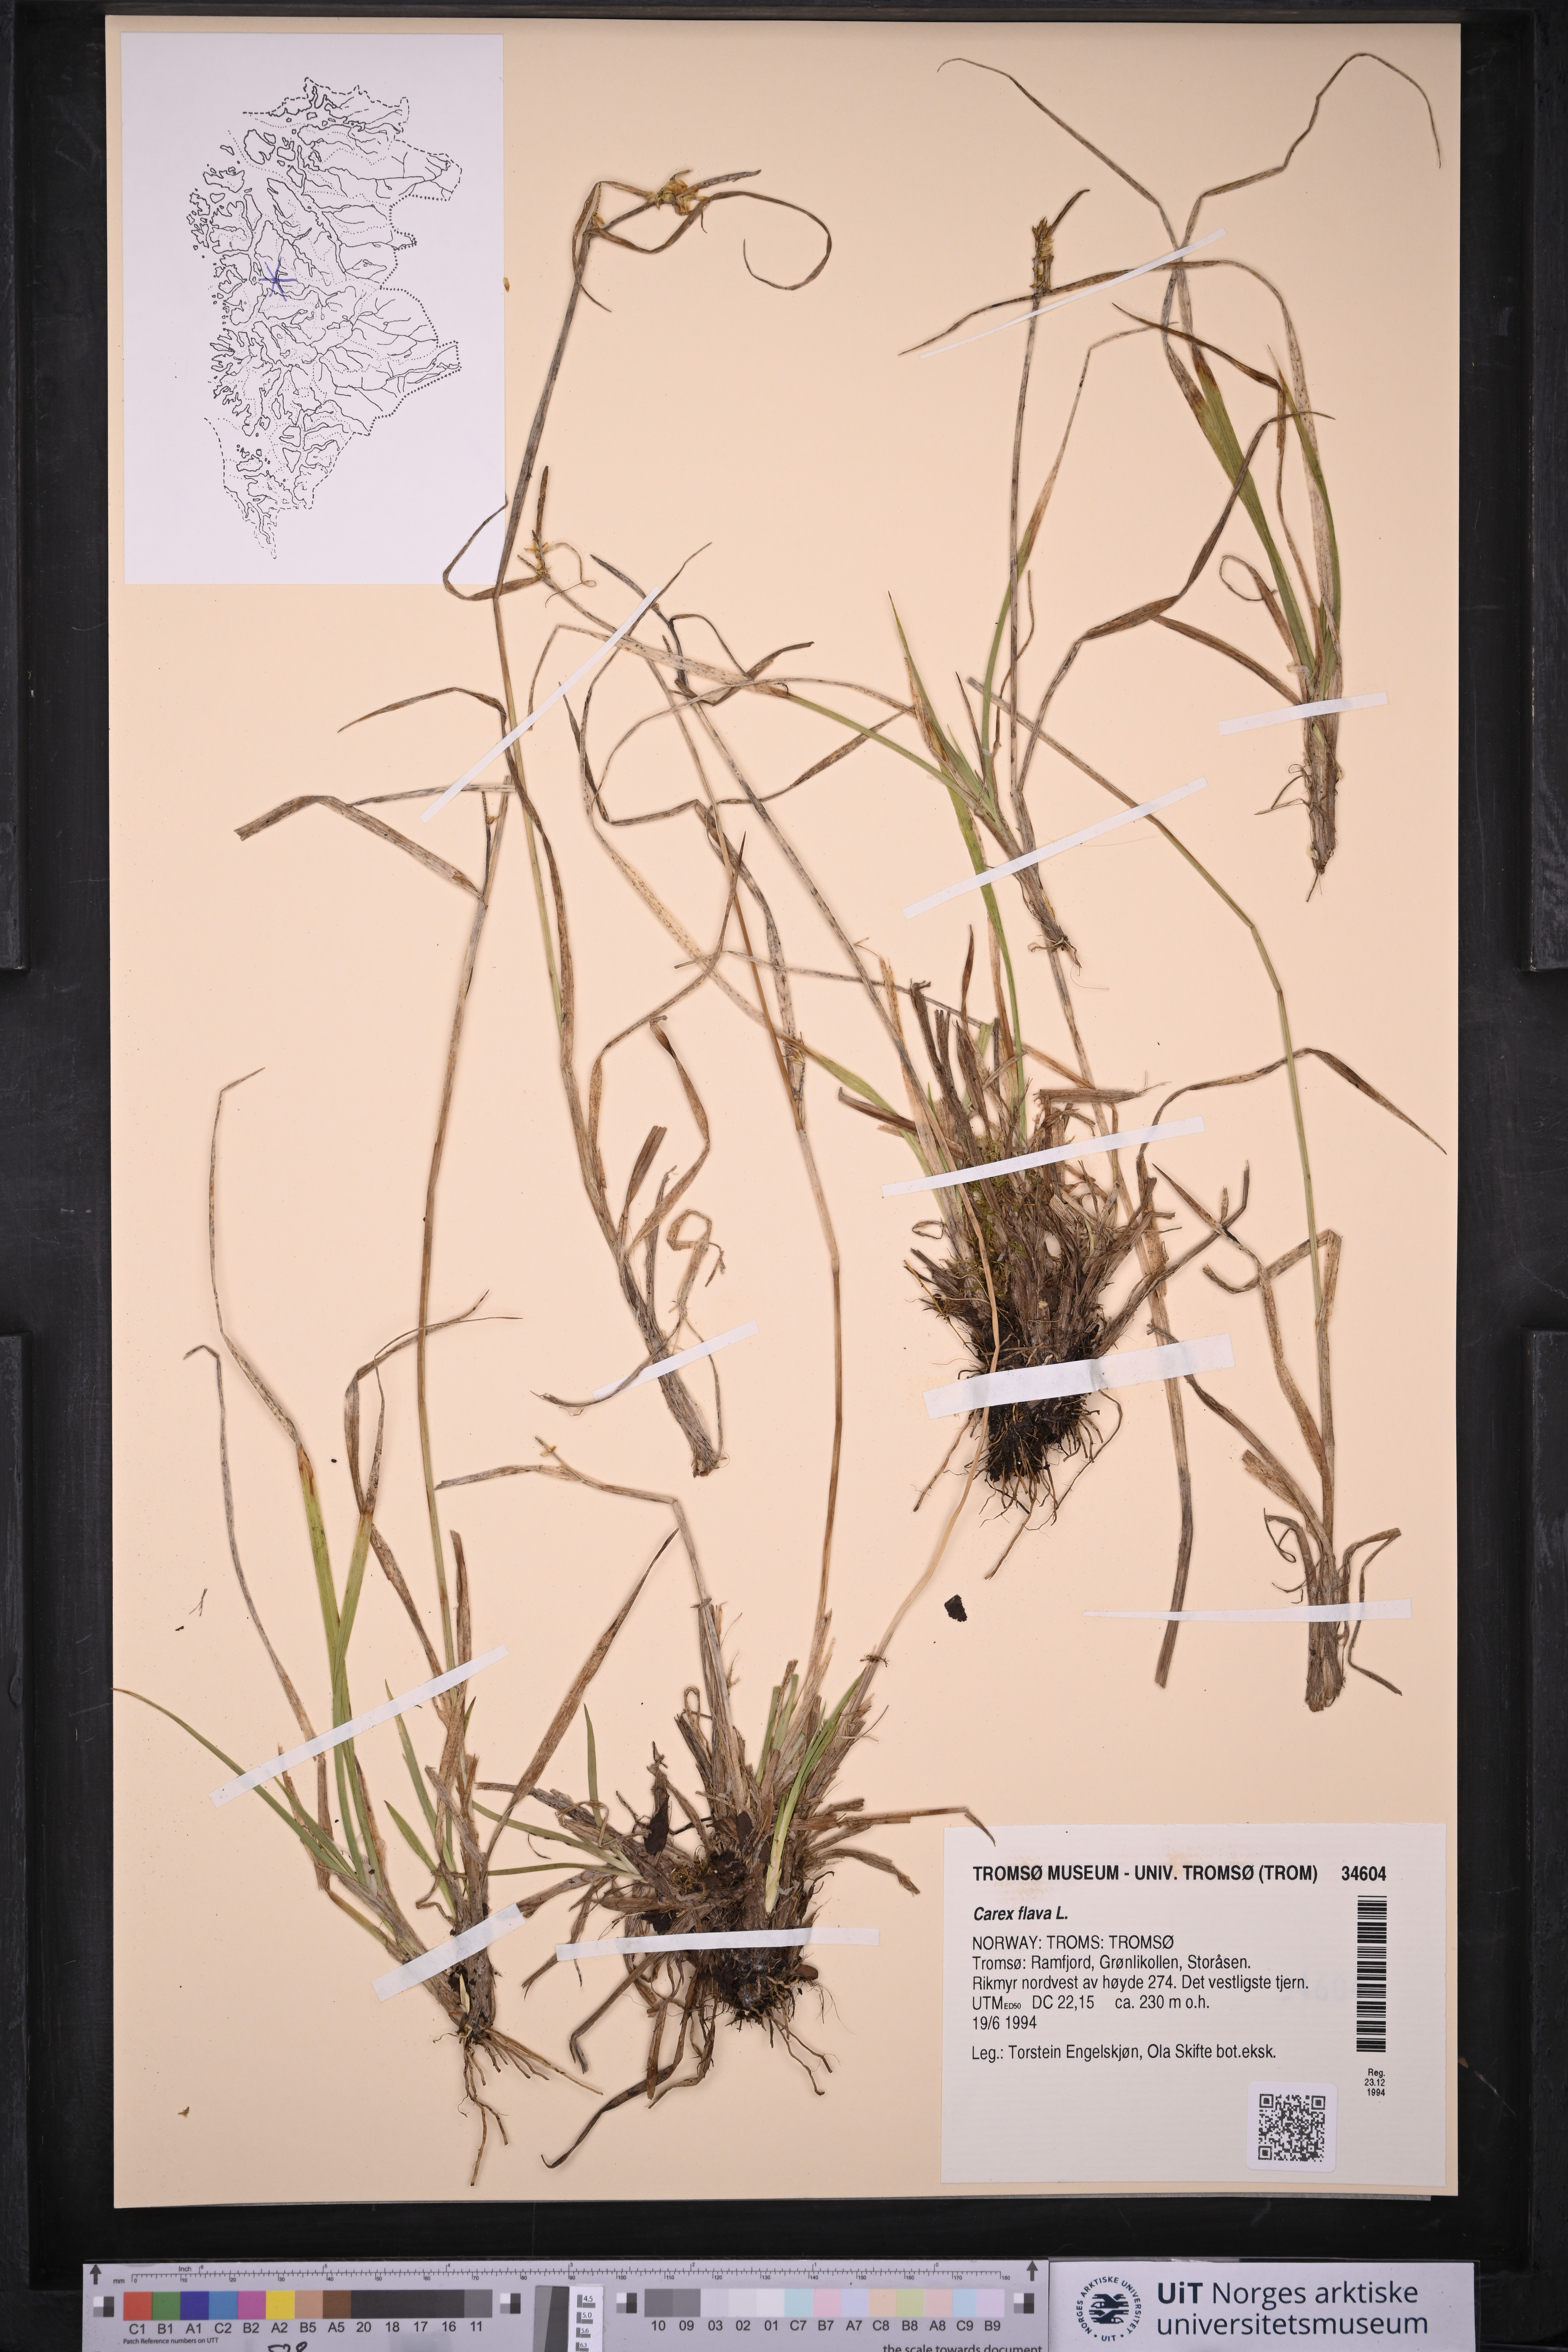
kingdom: Plantae
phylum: Tracheophyta
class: Liliopsida
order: Poales
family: Cyperaceae
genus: Carex
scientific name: Carex flava
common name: Large yellow-sedge
